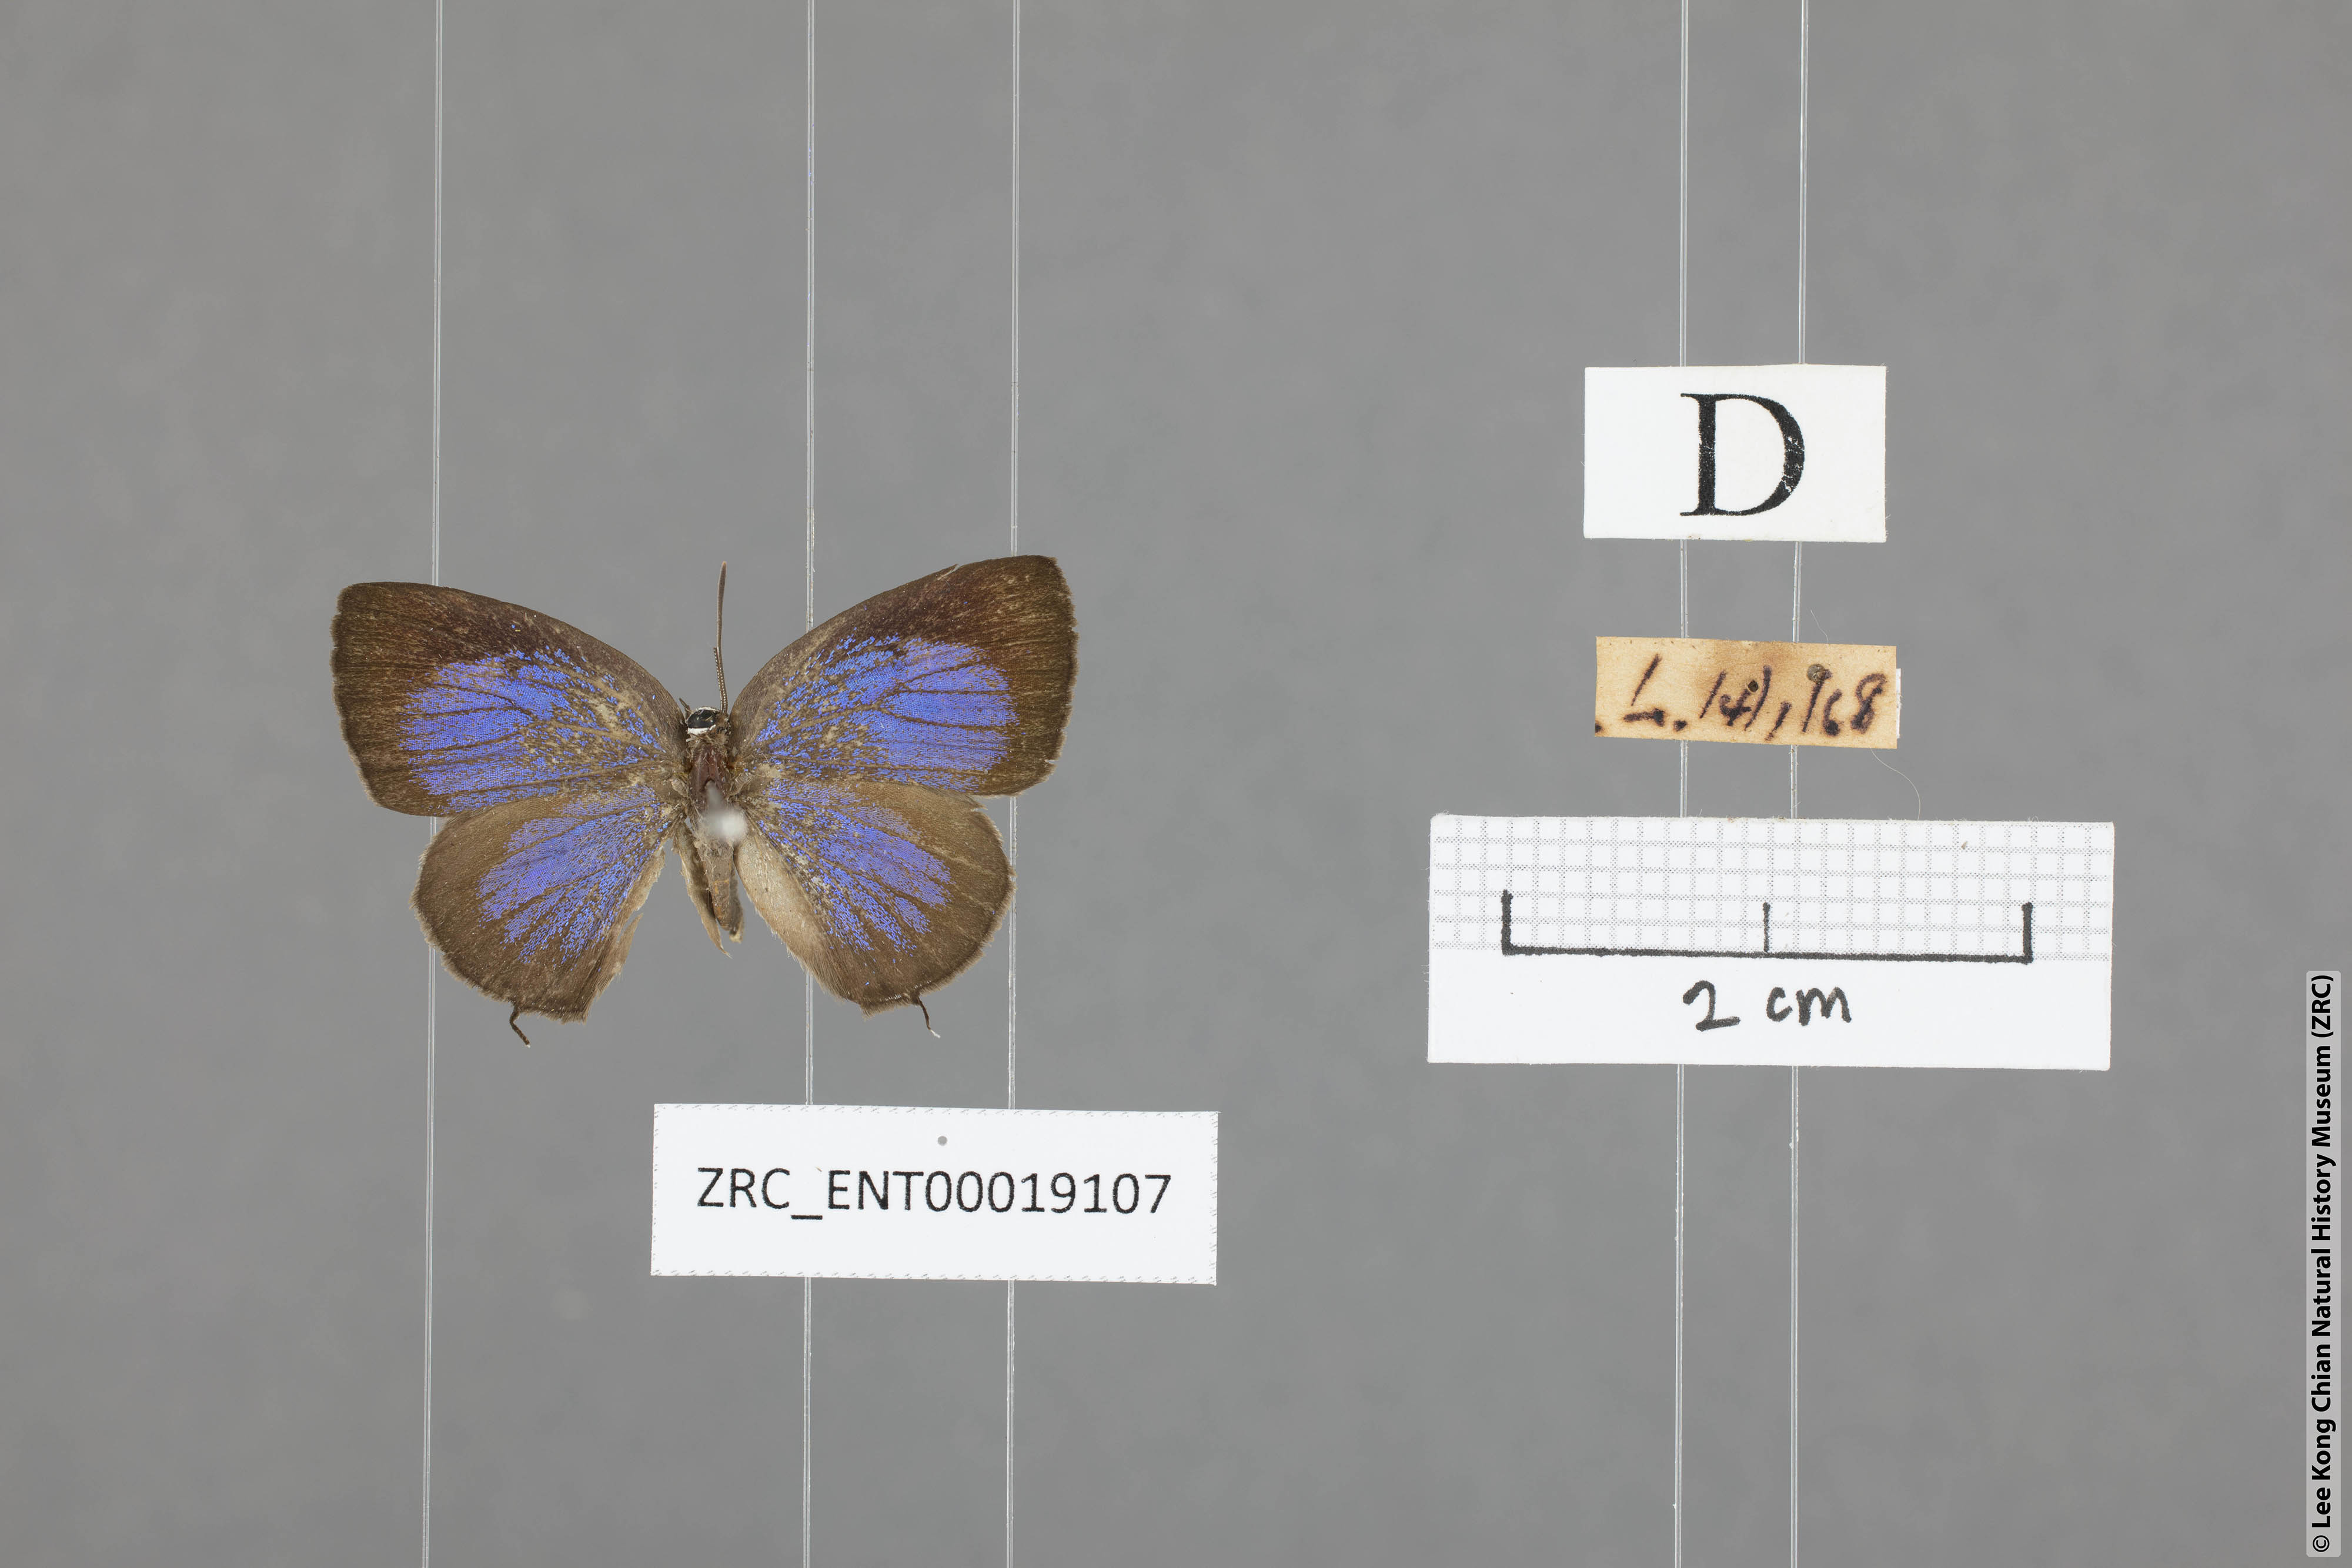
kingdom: Animalia
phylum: Arthropoda
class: Insecta
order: Lepidoptera
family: Lycaenidae
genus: Arhopala
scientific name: Arhopala ammon
